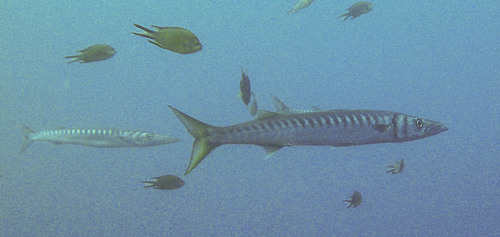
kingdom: Animalia
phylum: Chordata
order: Perciformes
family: Sphyraenidae
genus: Sphyraena
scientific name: Sphyraena viridensis
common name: Yellowmouth barracuda
